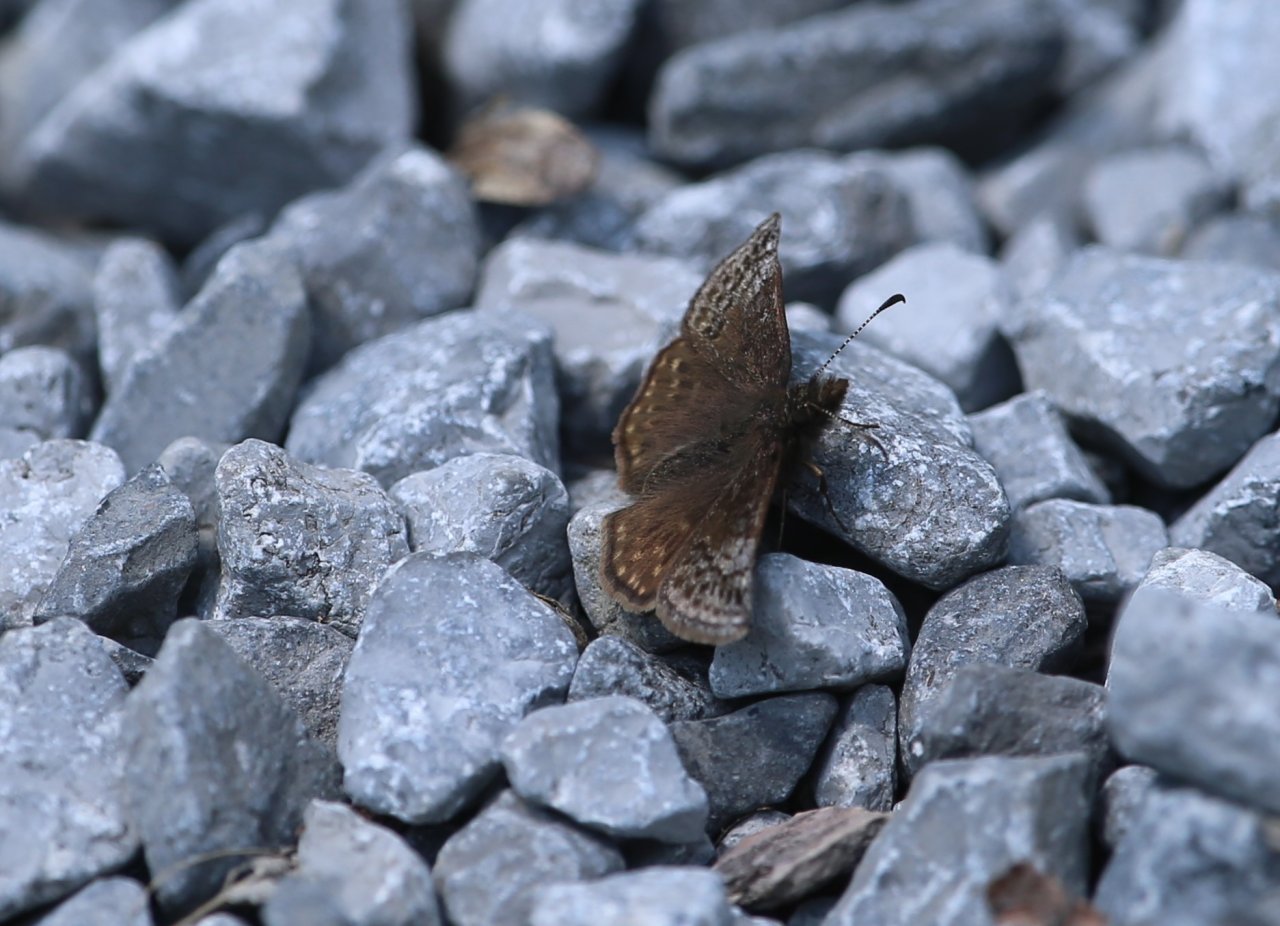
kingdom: Animalia
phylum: Arthropoda
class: Insecta
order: Lepidoptera
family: Hesperiidae
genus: Erynnis
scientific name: Erynnis icelus
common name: Dreamy Duskywing
